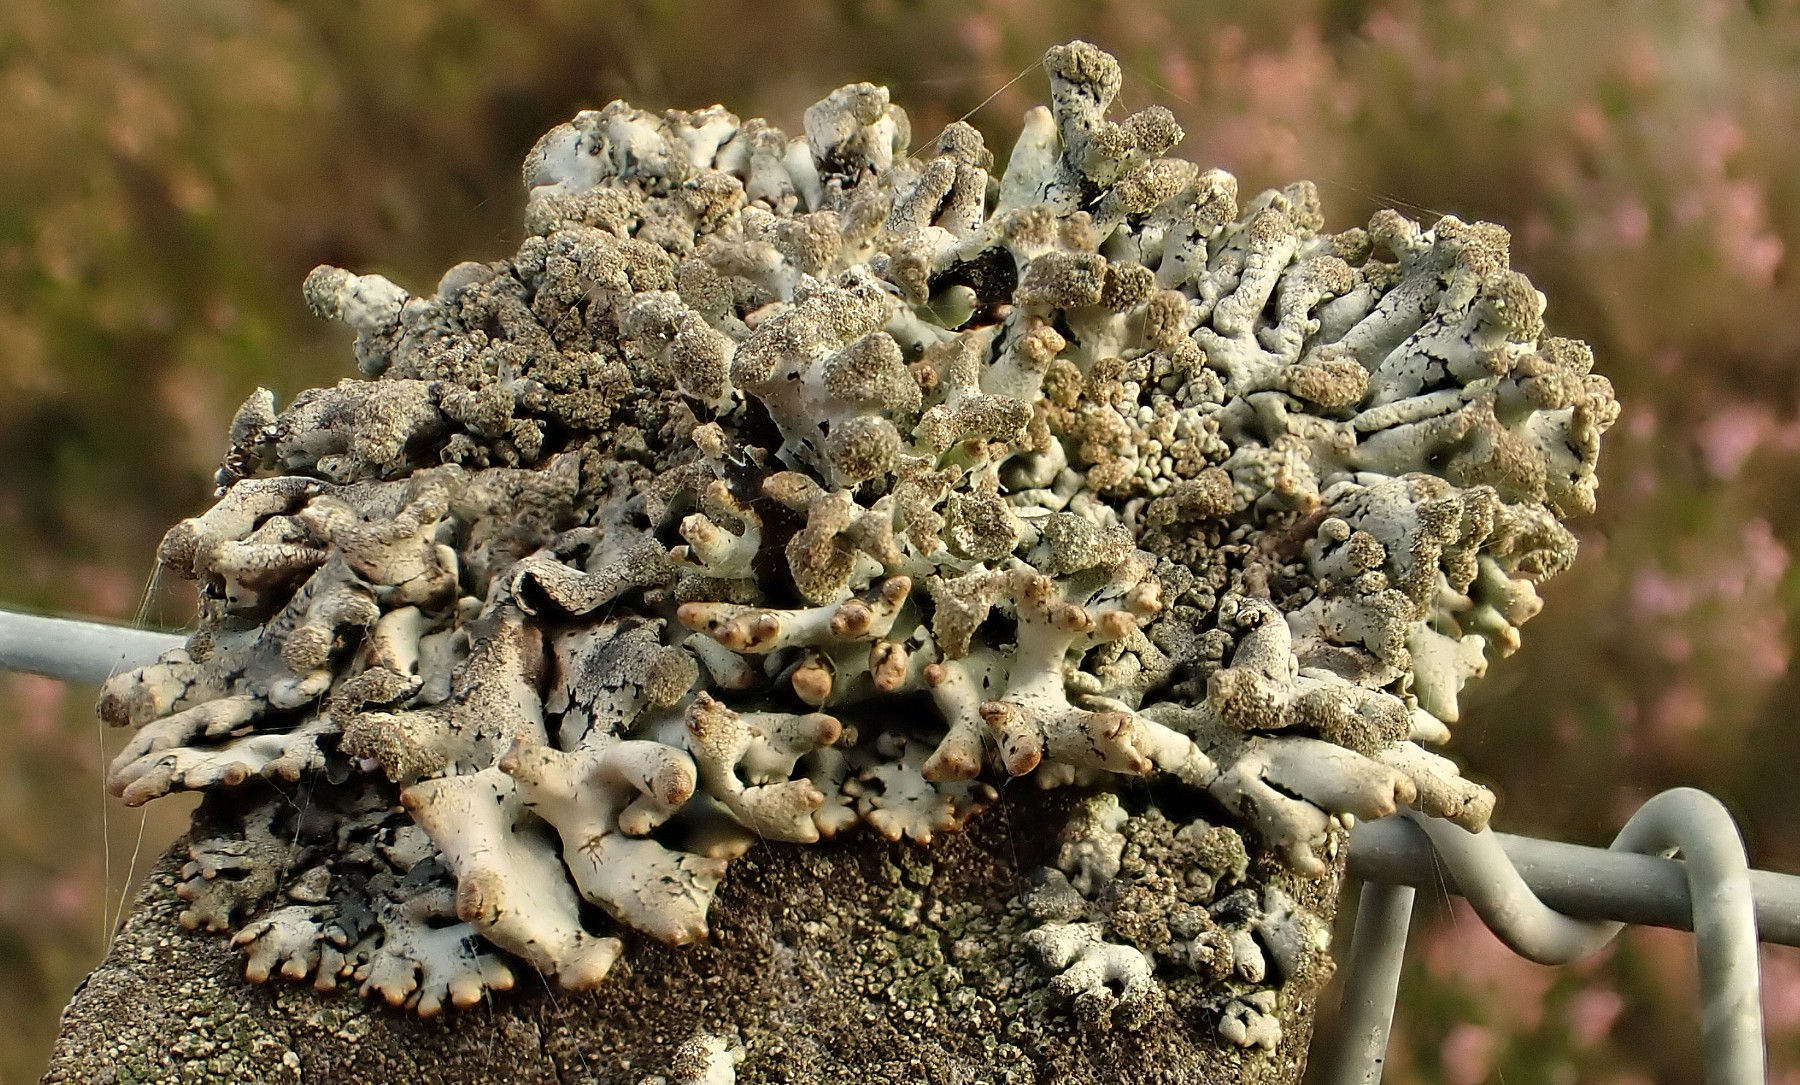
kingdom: Fungi
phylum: Ascomycota
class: Lecanoromycetes
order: Lecanorales
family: Parmeliaceae
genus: Hypogymnia
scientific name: Hypogymnia tubulosa
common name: finger-kvistlav
